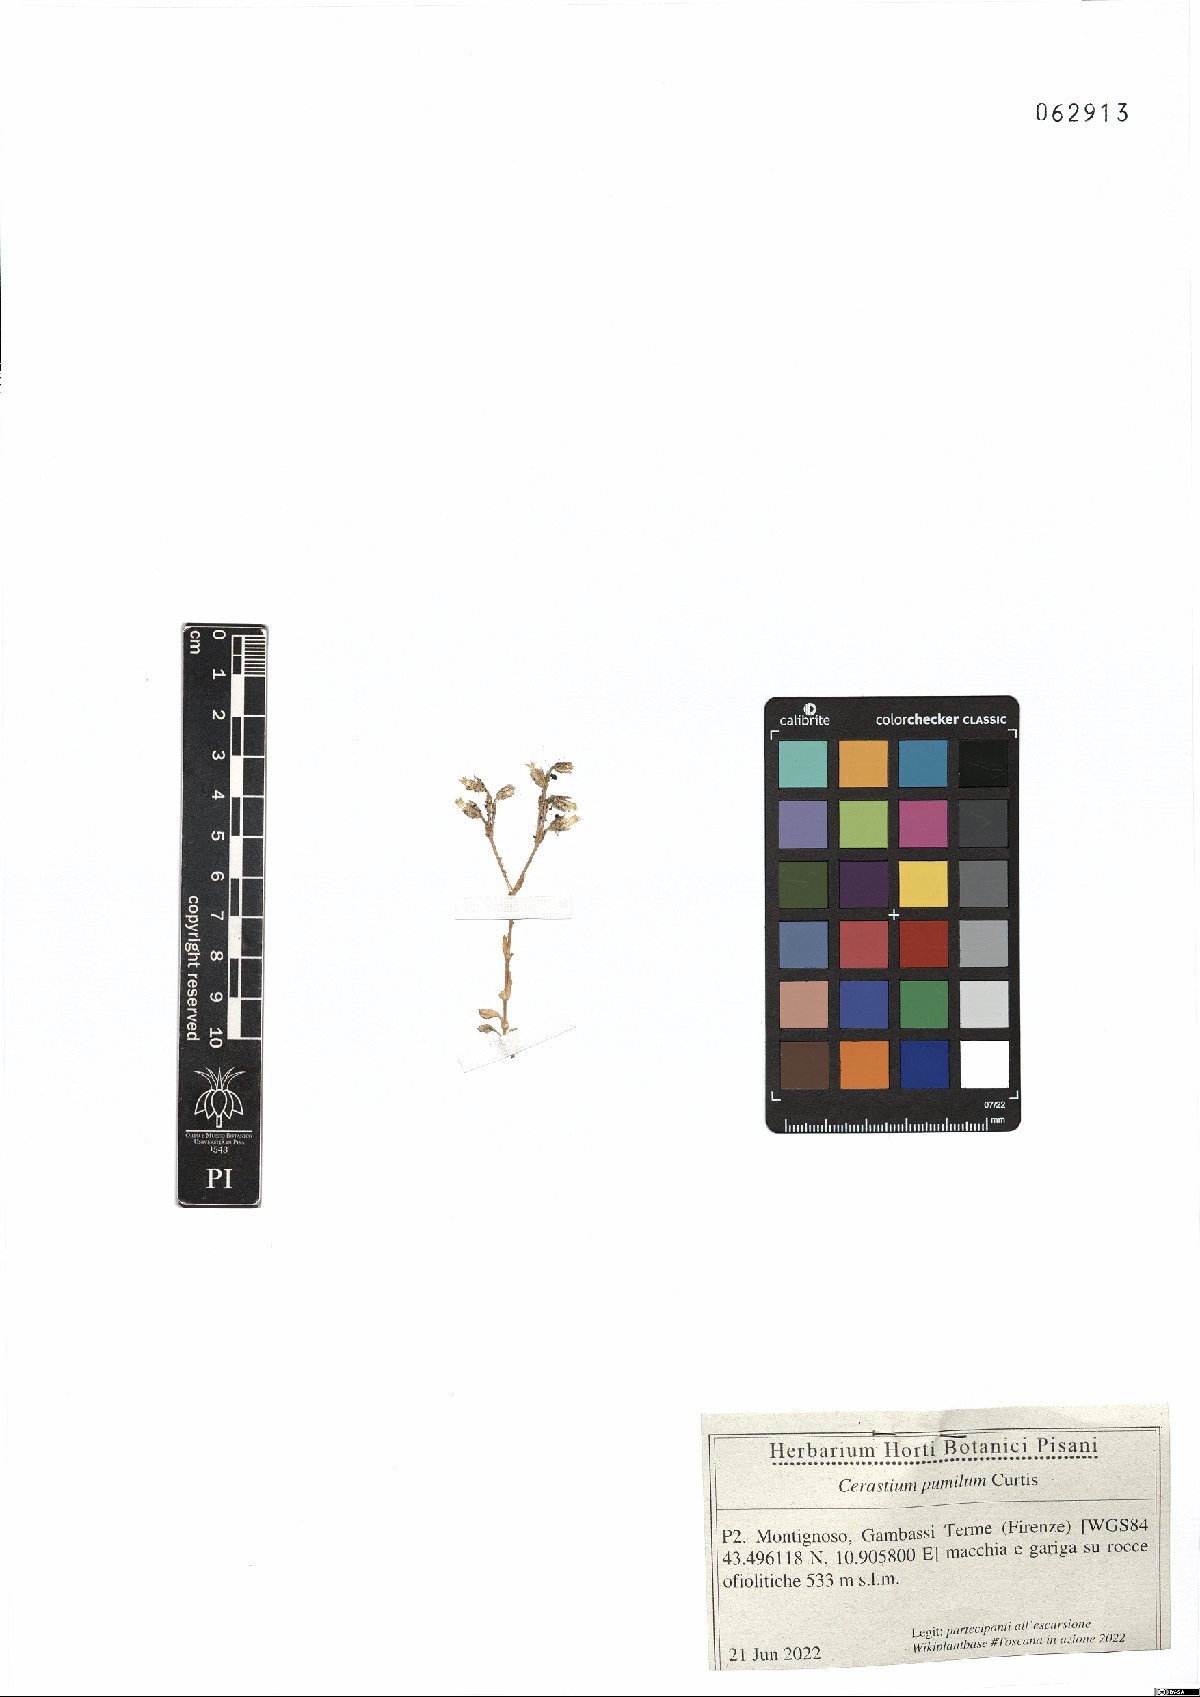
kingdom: Plantae
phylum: Tracheophyta
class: Magnoliopsida
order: Caryophyllales
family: Caryophyllaceae
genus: Cerastium
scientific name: Cerastium pumilum
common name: Dwarf mouse-ear
